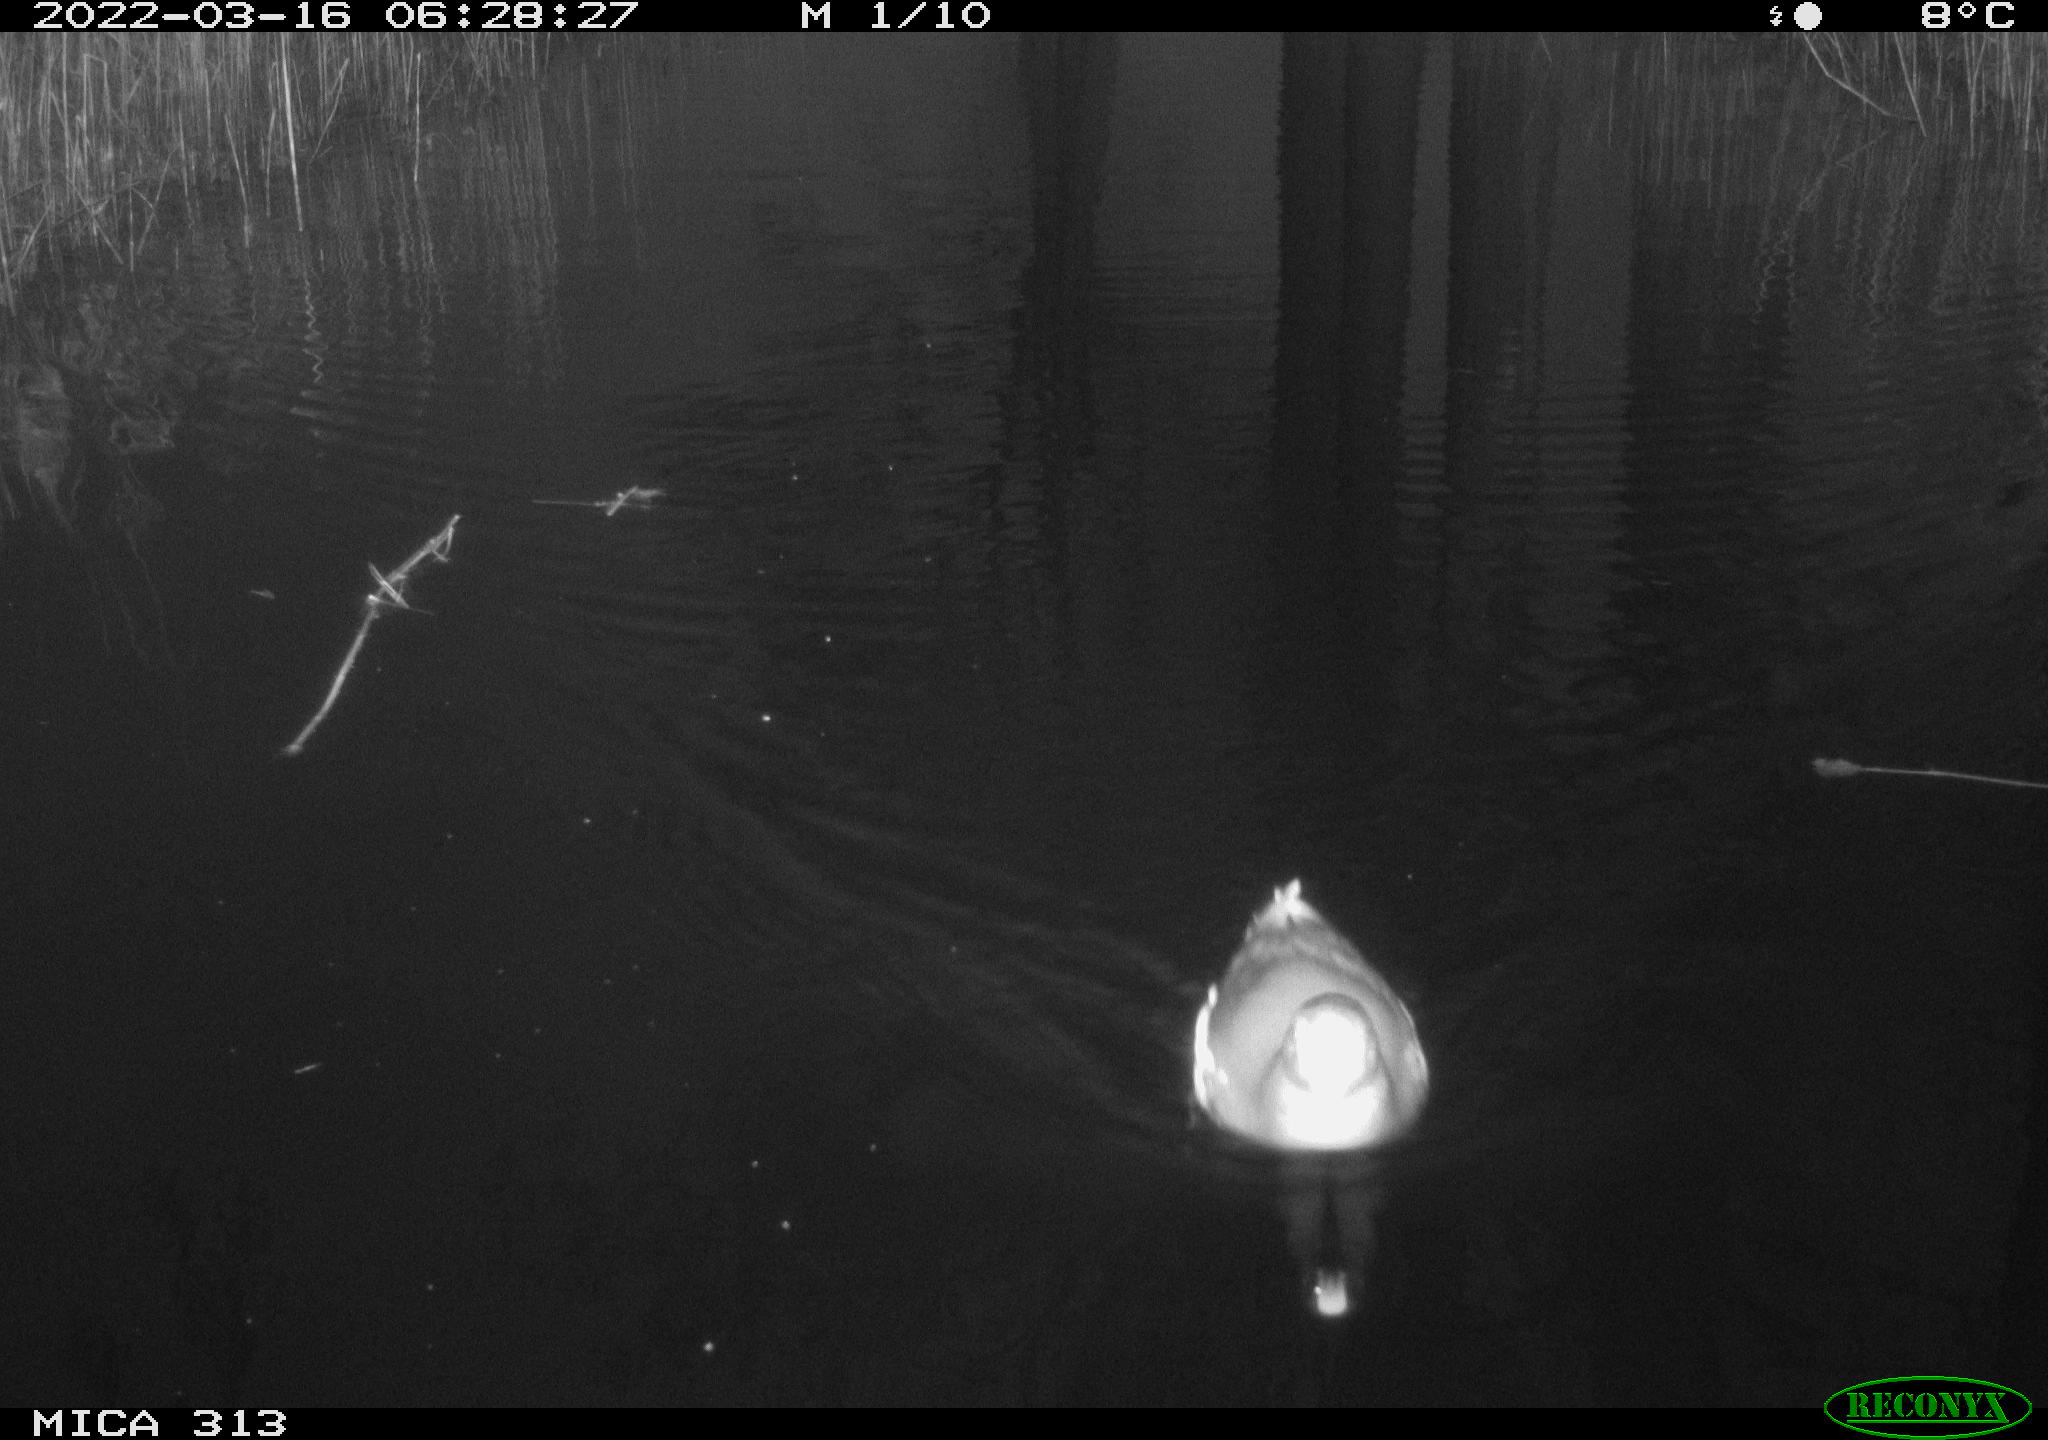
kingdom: Animalia
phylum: Chordata
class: Aves
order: Gruiformes
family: Rallidae
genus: Gallinula
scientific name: Gallinula chloropus
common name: Common moorhen
